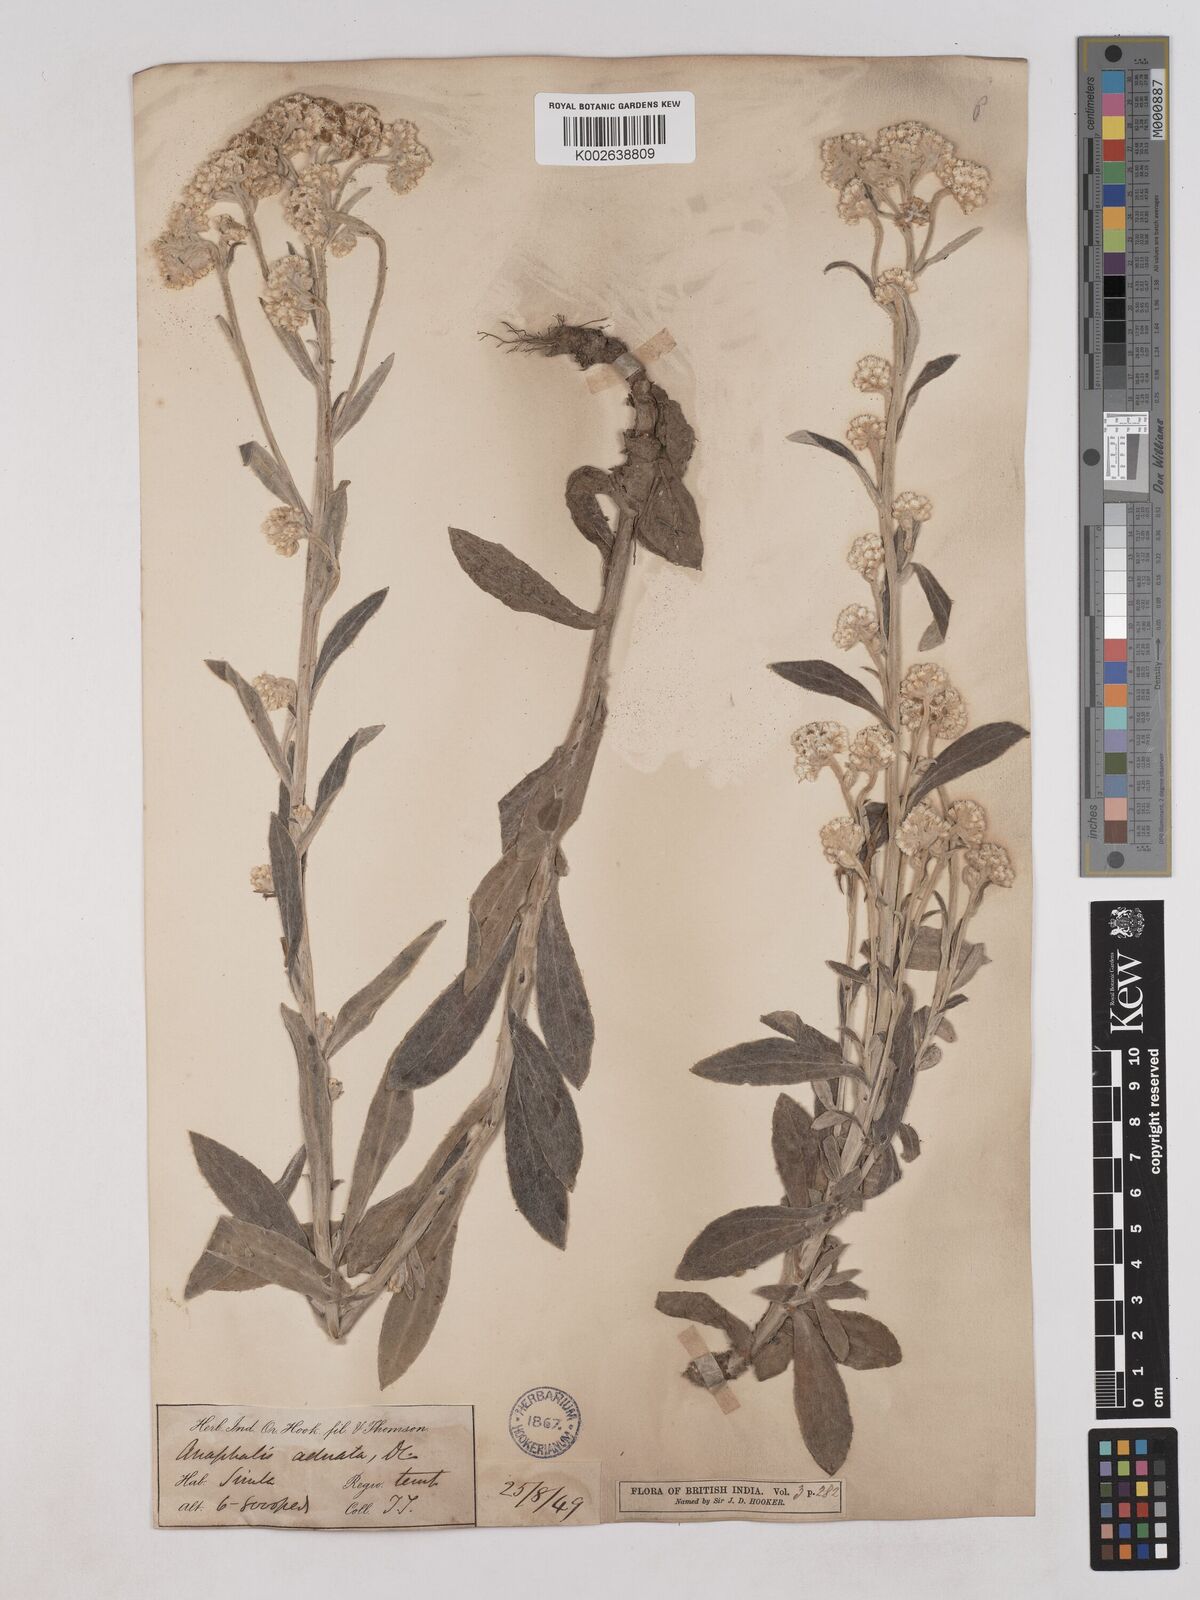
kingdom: Plantae
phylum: Tracheophyta
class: Magnoliopsida
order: Asterales
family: Asteraceae
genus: Pseudognaphalium
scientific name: Pseudognaphalium adnatum
